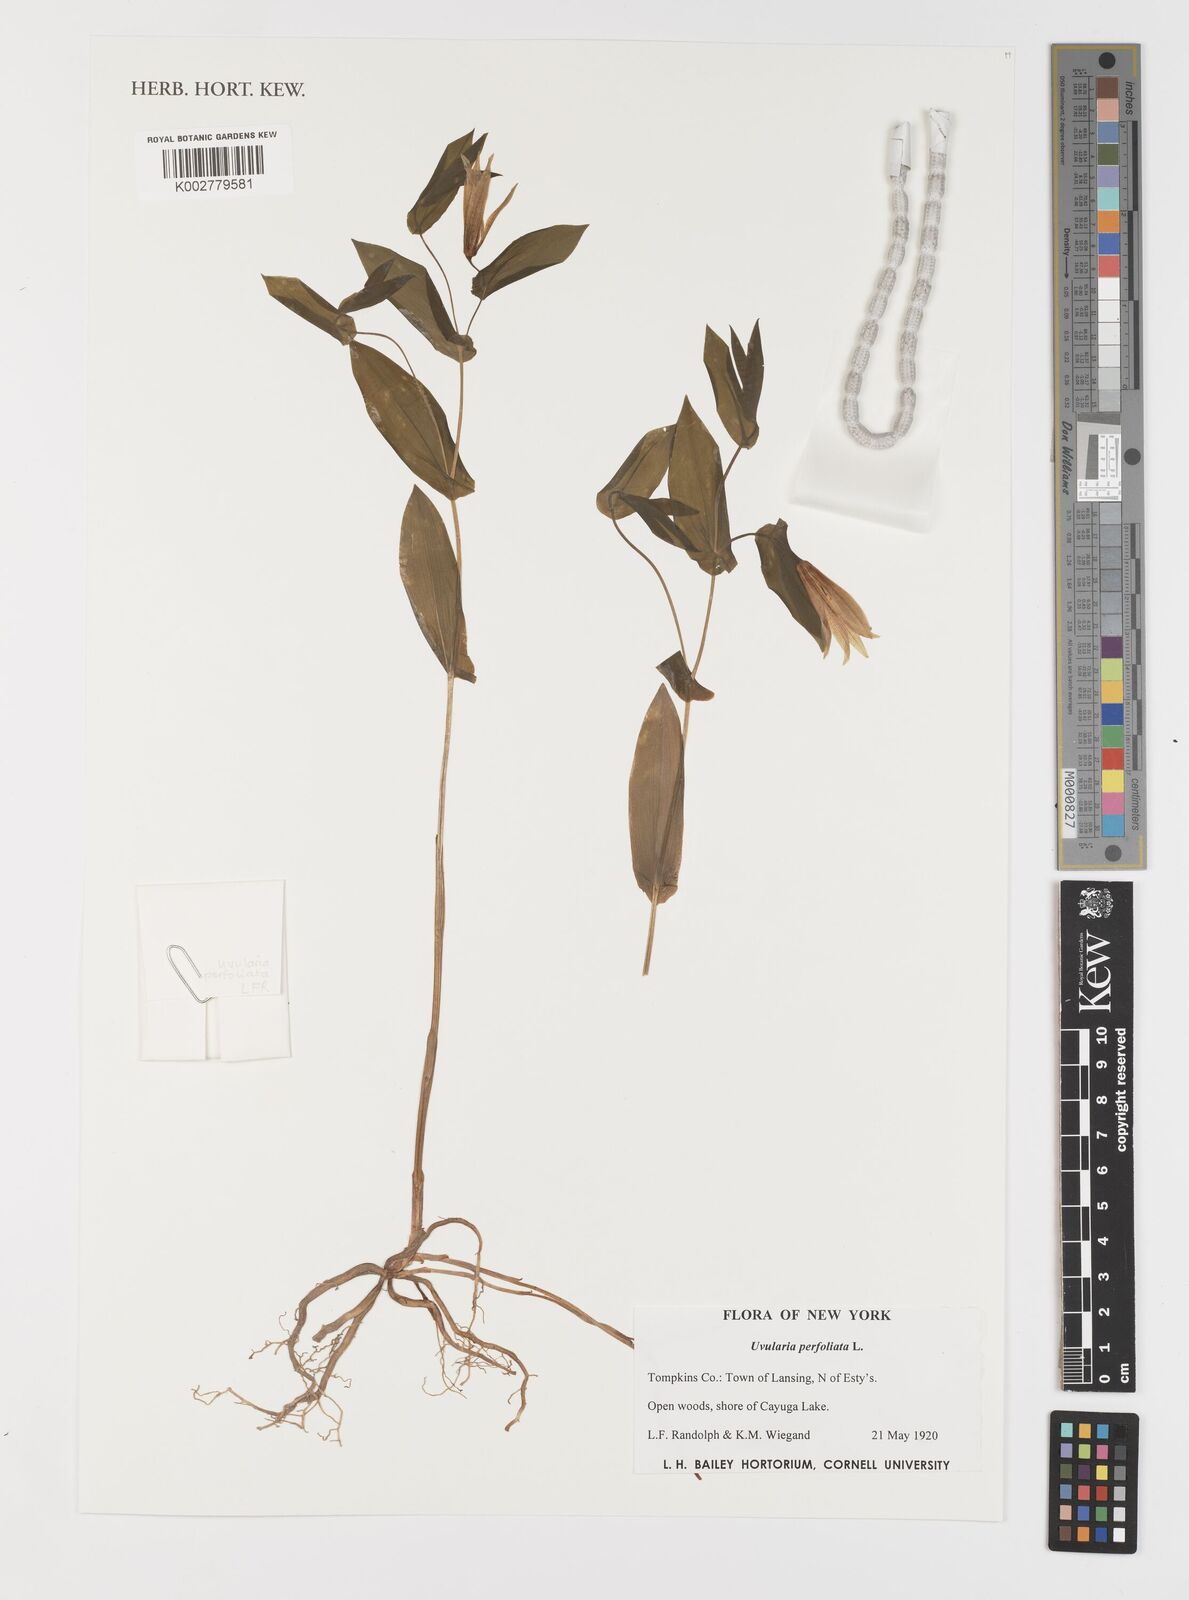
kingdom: Plantae
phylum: Tracheophyta
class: Liliopsida
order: Liliales
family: Colchicaceae
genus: Uvularia
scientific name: Uvularia perfoliata
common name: Perfoliate bellwort
